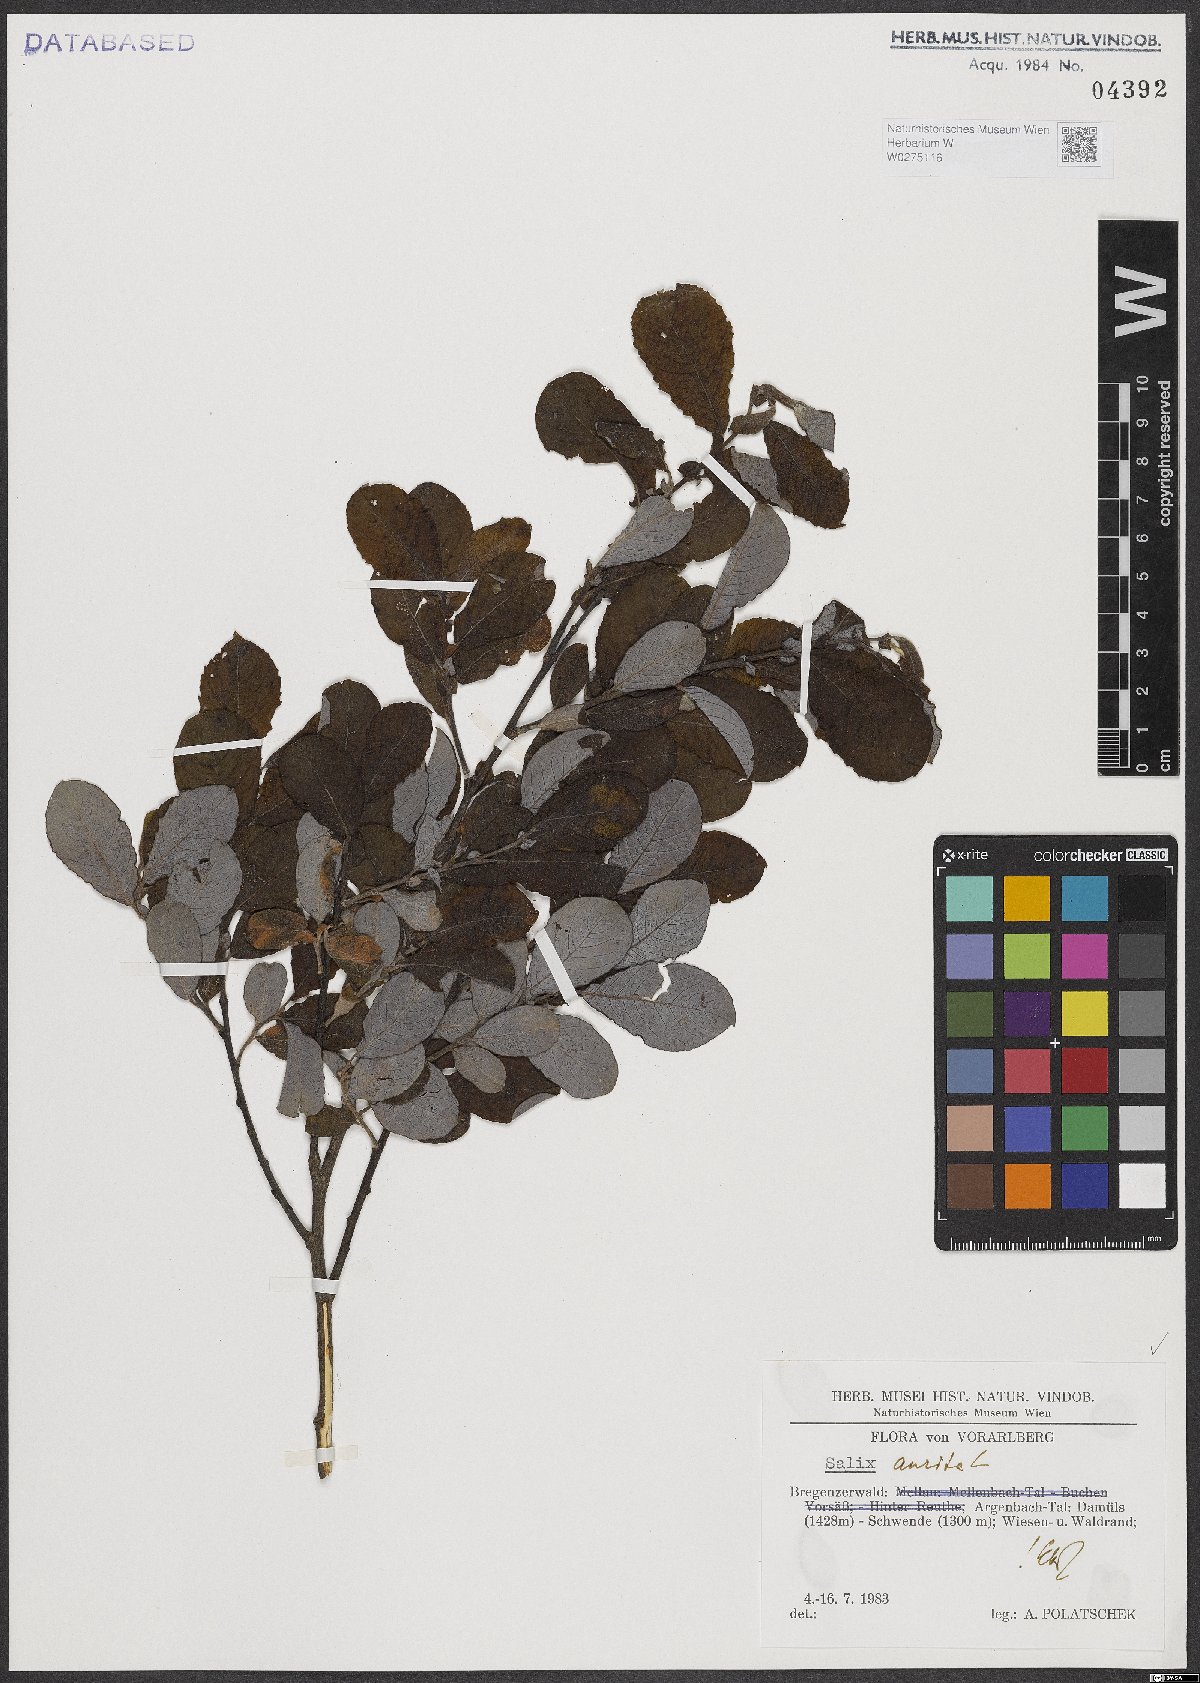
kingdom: Plantae
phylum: Tracheophyta
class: Magnoliopsida
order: Malpighiales
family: Salicaceae
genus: Salix
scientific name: Salix aurita
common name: Eared willow
